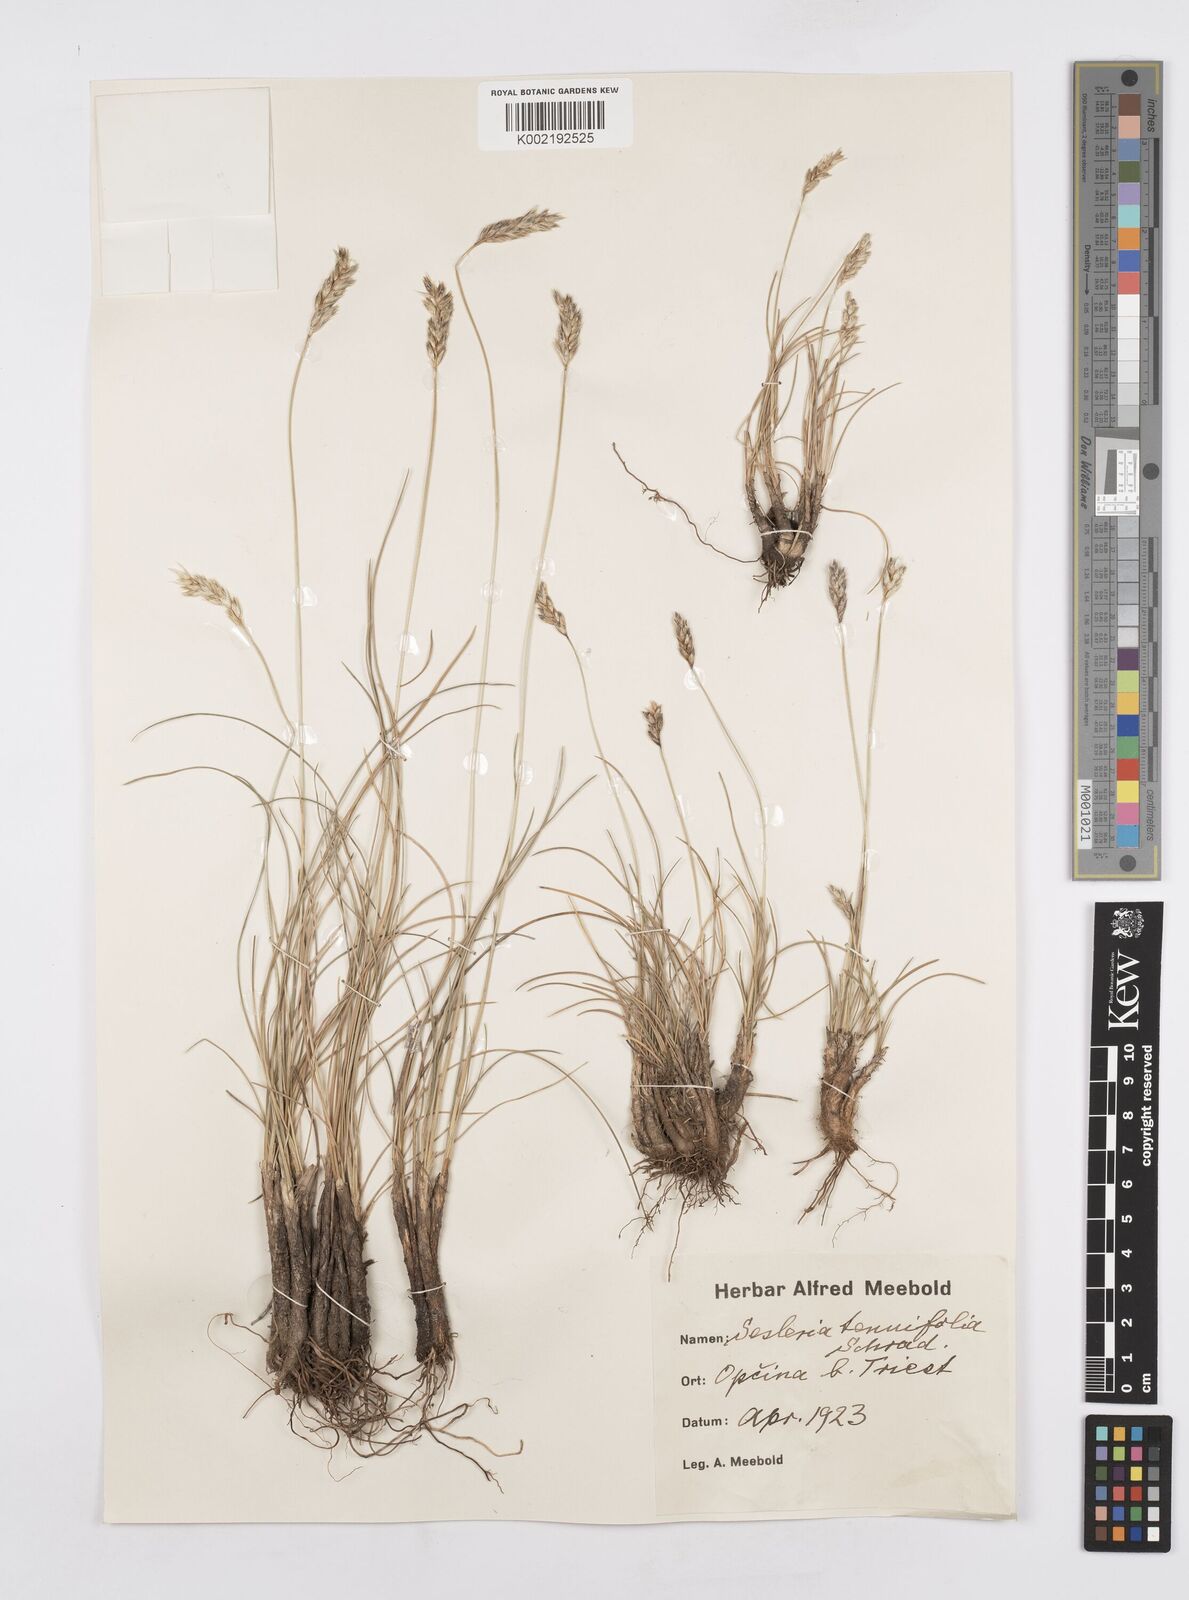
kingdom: Plantae
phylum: Tracheophyta
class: Liliopsida
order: Poales
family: Poaceae
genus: Sesleria
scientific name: Sesleria juncifolia
